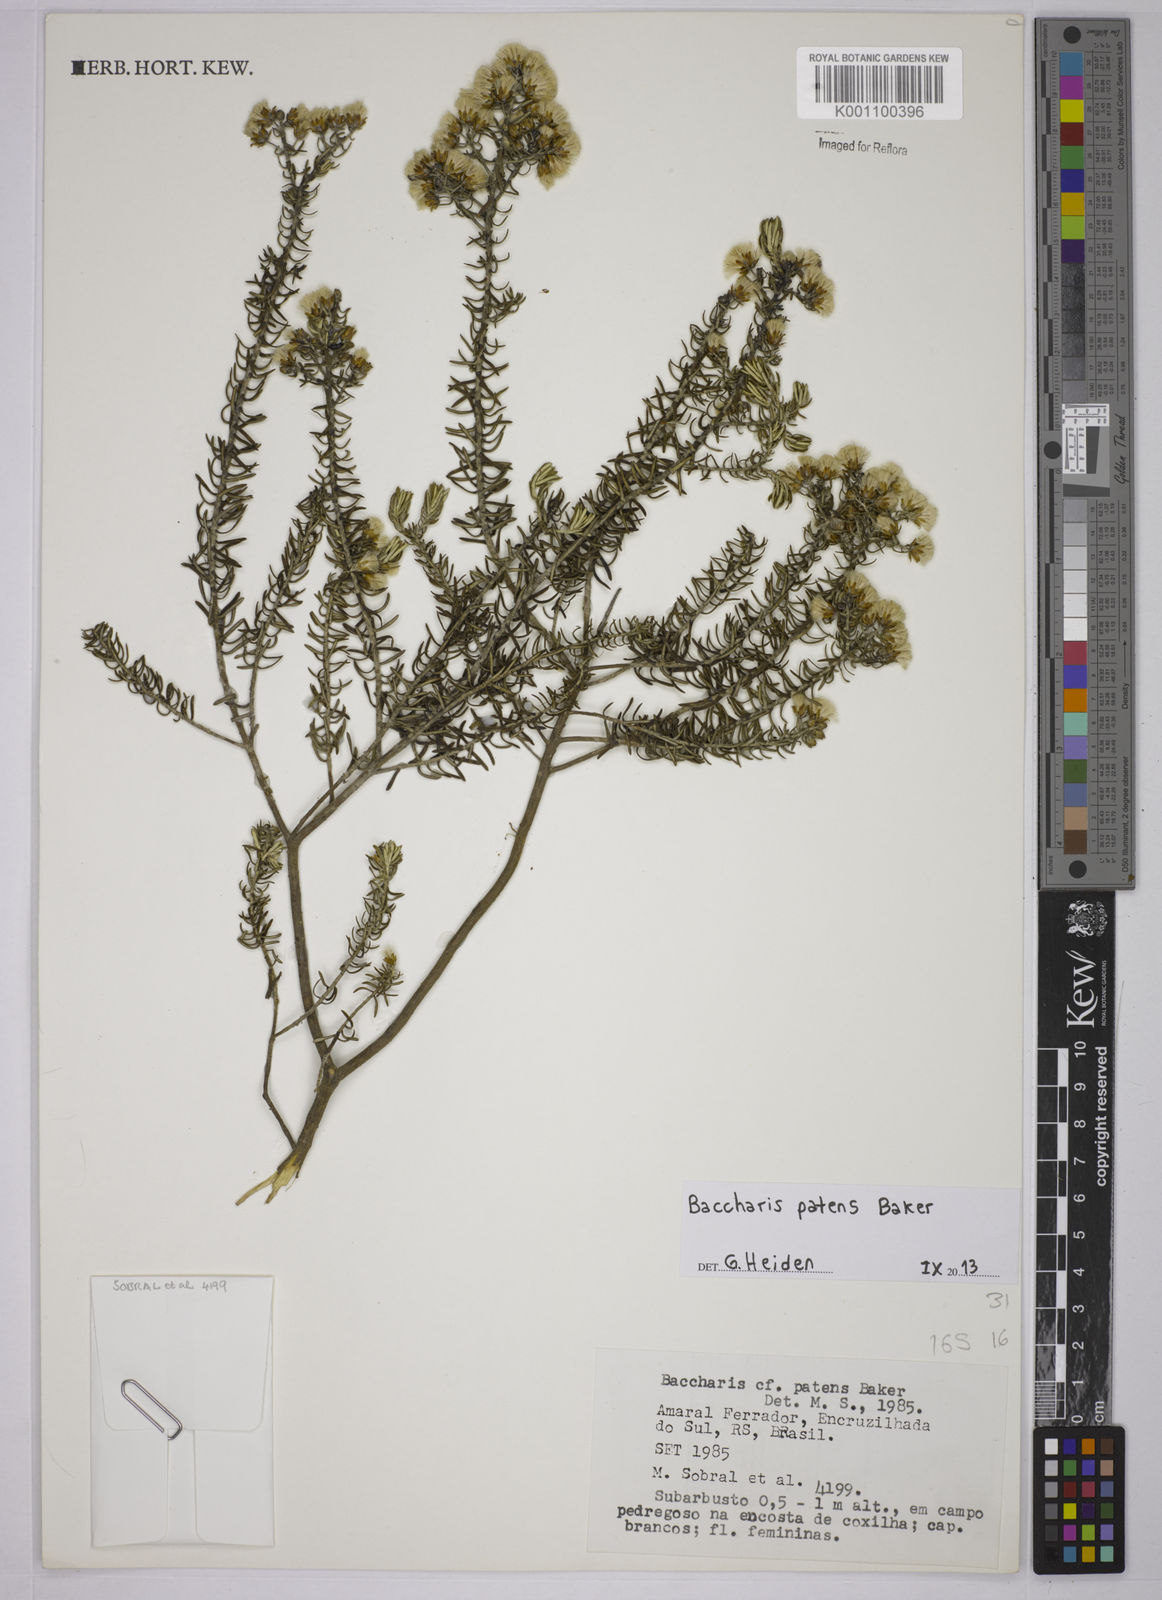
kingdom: Plantae
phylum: Tracheophyta
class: Magnoliopsida
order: Asterales
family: Asteraceae
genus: Baccharis
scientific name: Baccharis patens
